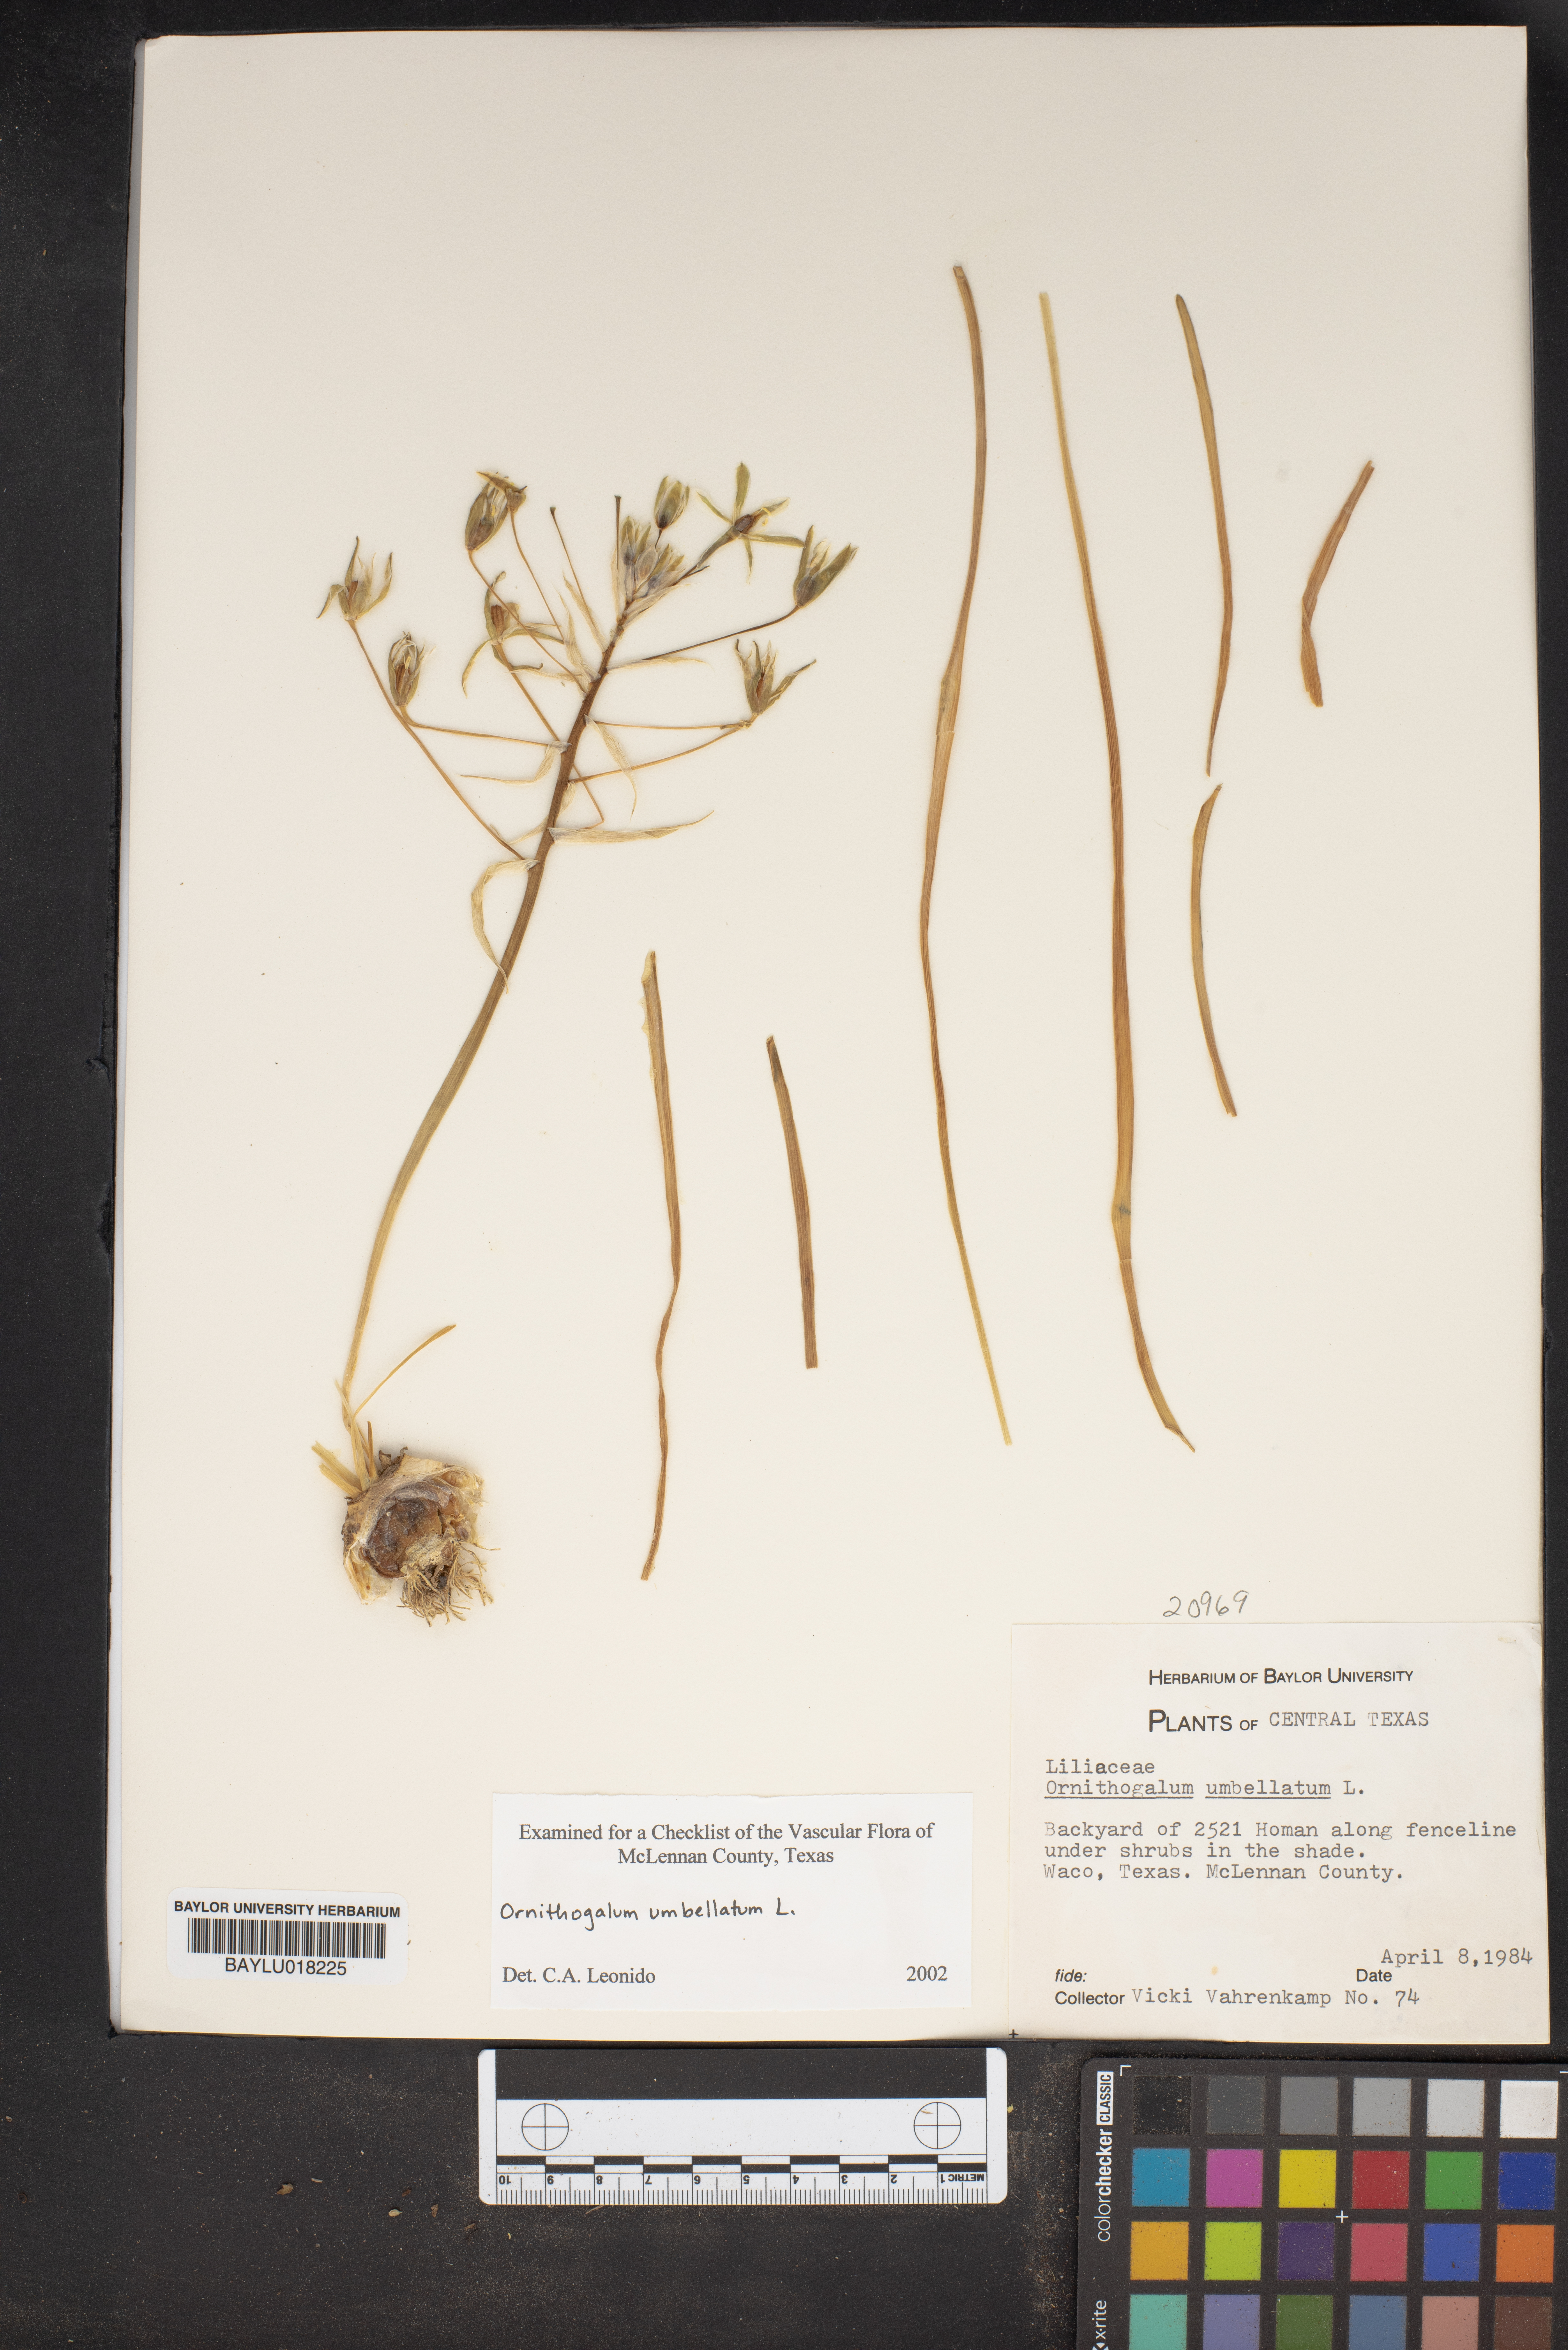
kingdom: Plantae
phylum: Tracheophyta
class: Liliopsida
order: Asparagales
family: Asparagaceae
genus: Ornithogalum
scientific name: Ornithogalum umbellatum
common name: Garden star-of-bethlehem
